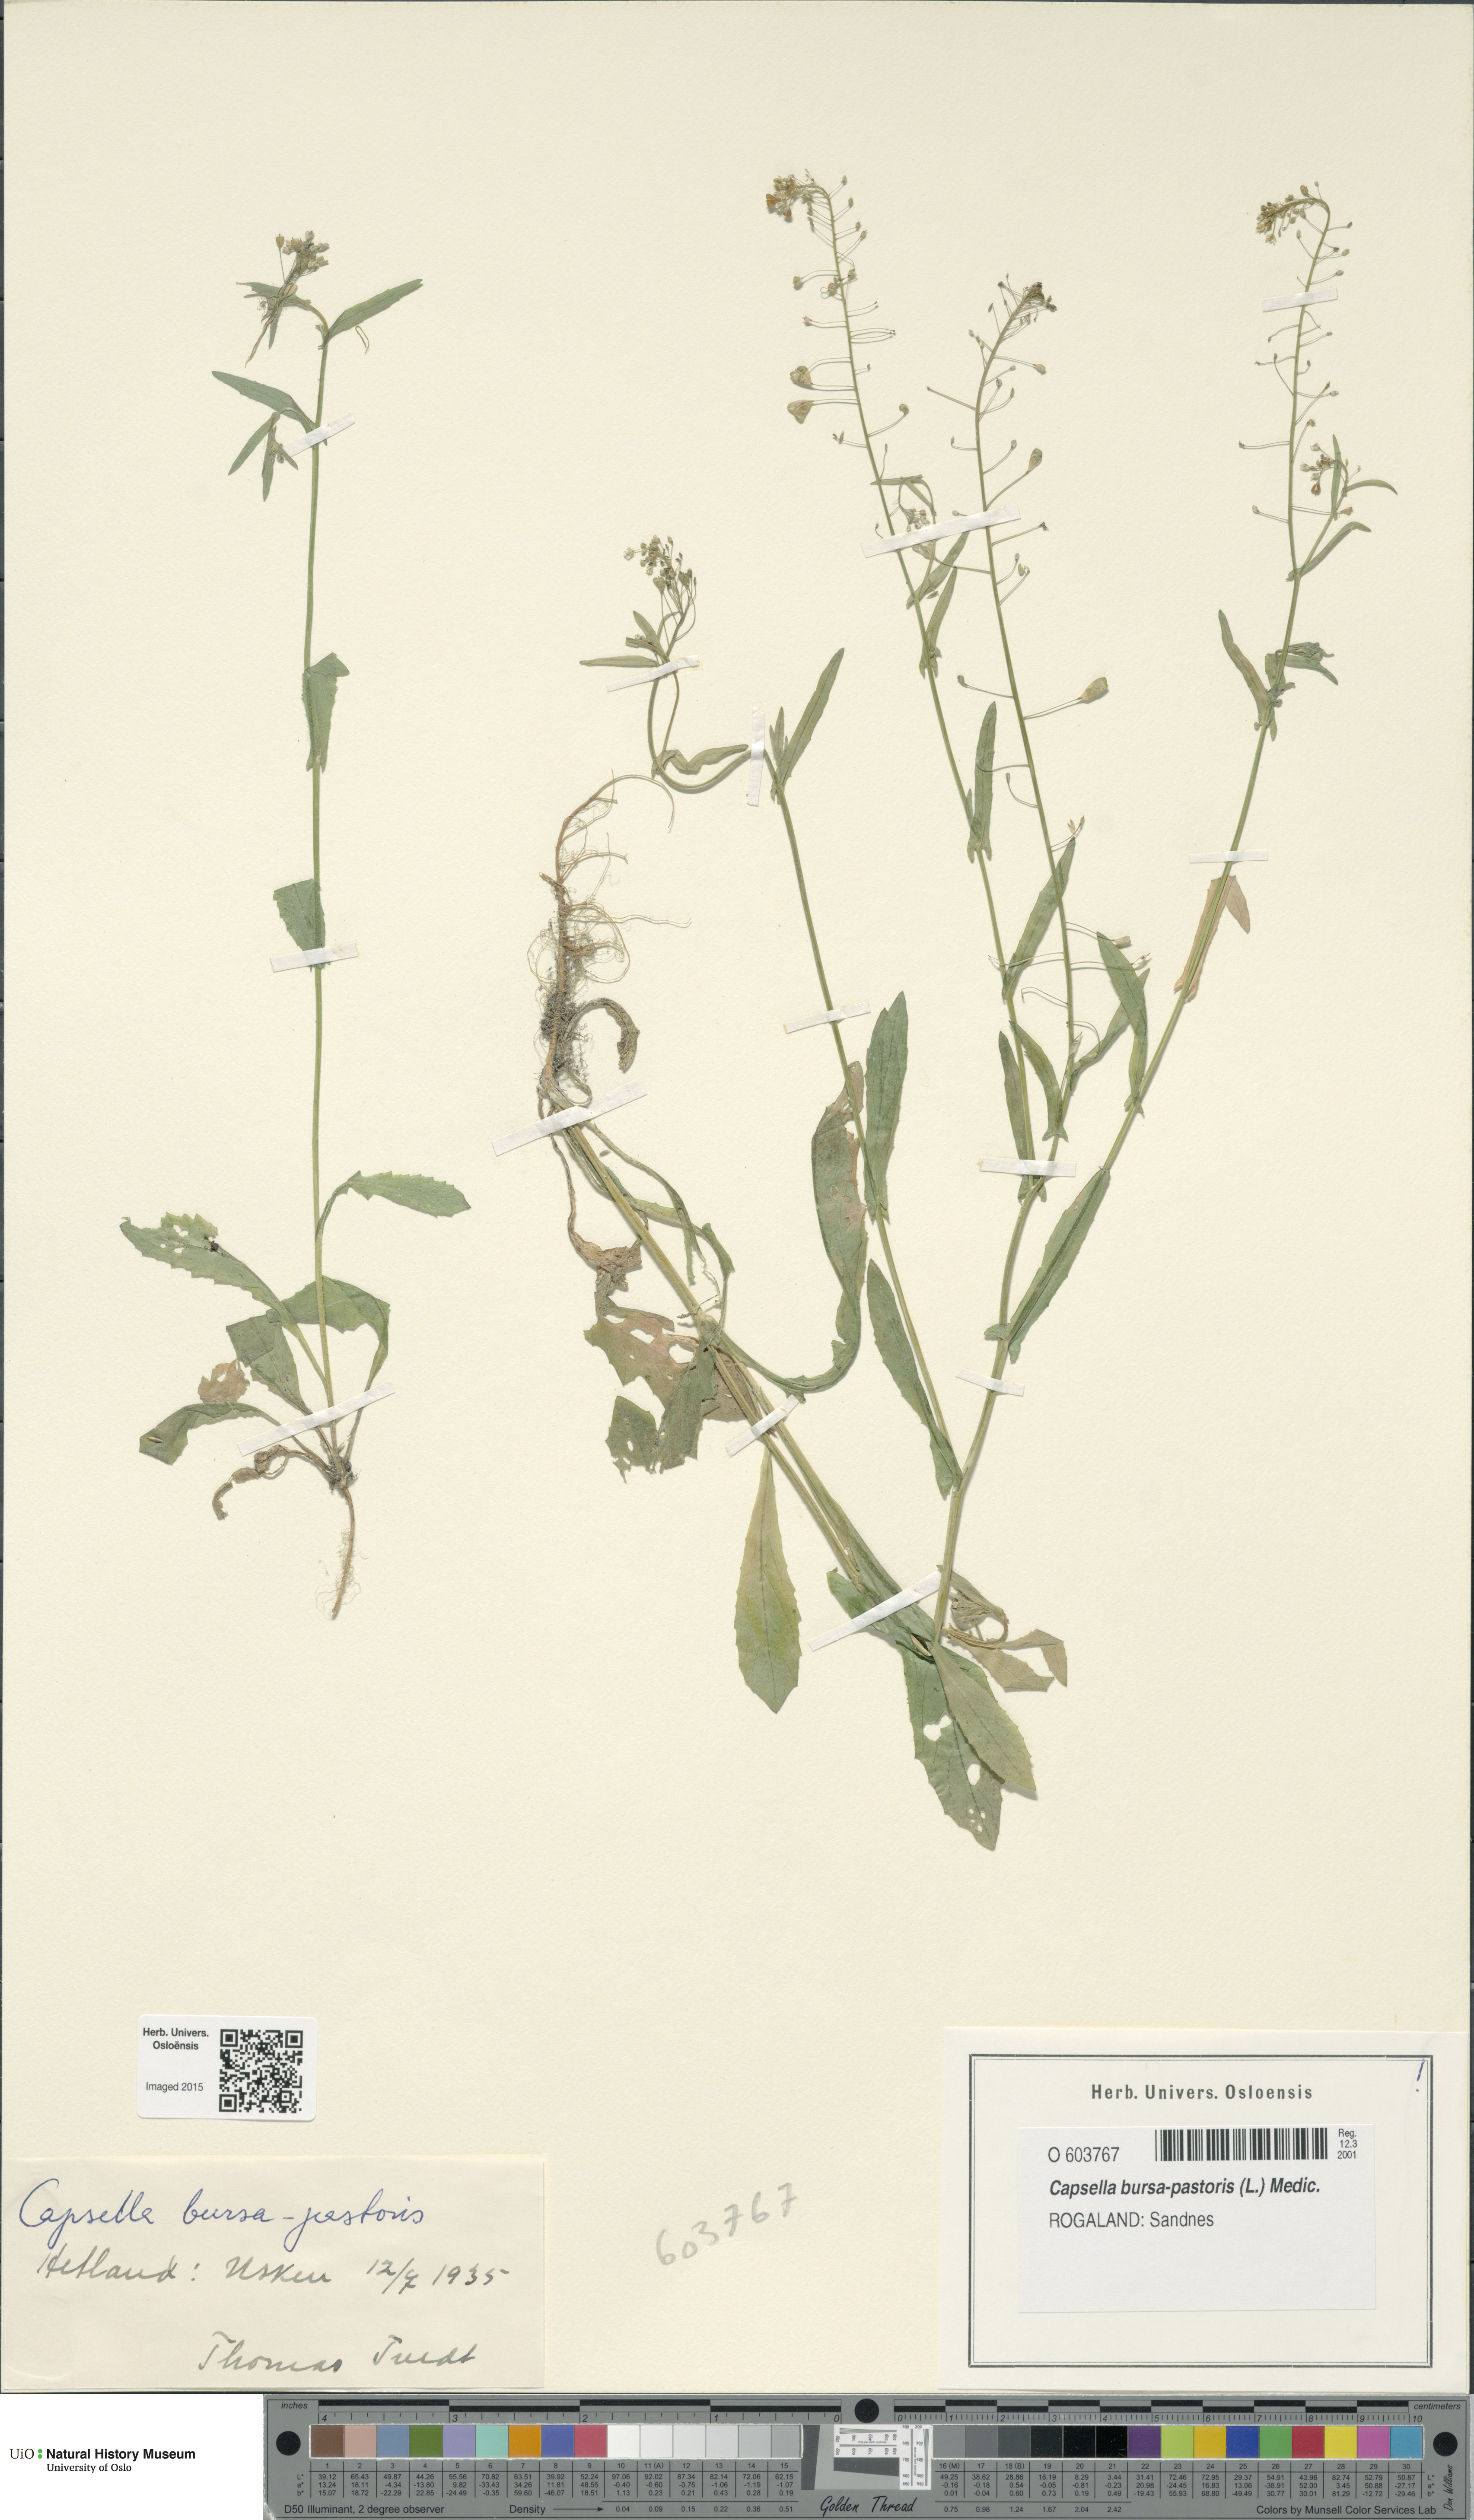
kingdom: Plantae
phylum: Tracheophyta
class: Magnoliopsida
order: Brassicales
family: Brassicaceae
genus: Capsella
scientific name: Capsella bursa-pastoris
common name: Shepherd's purse
